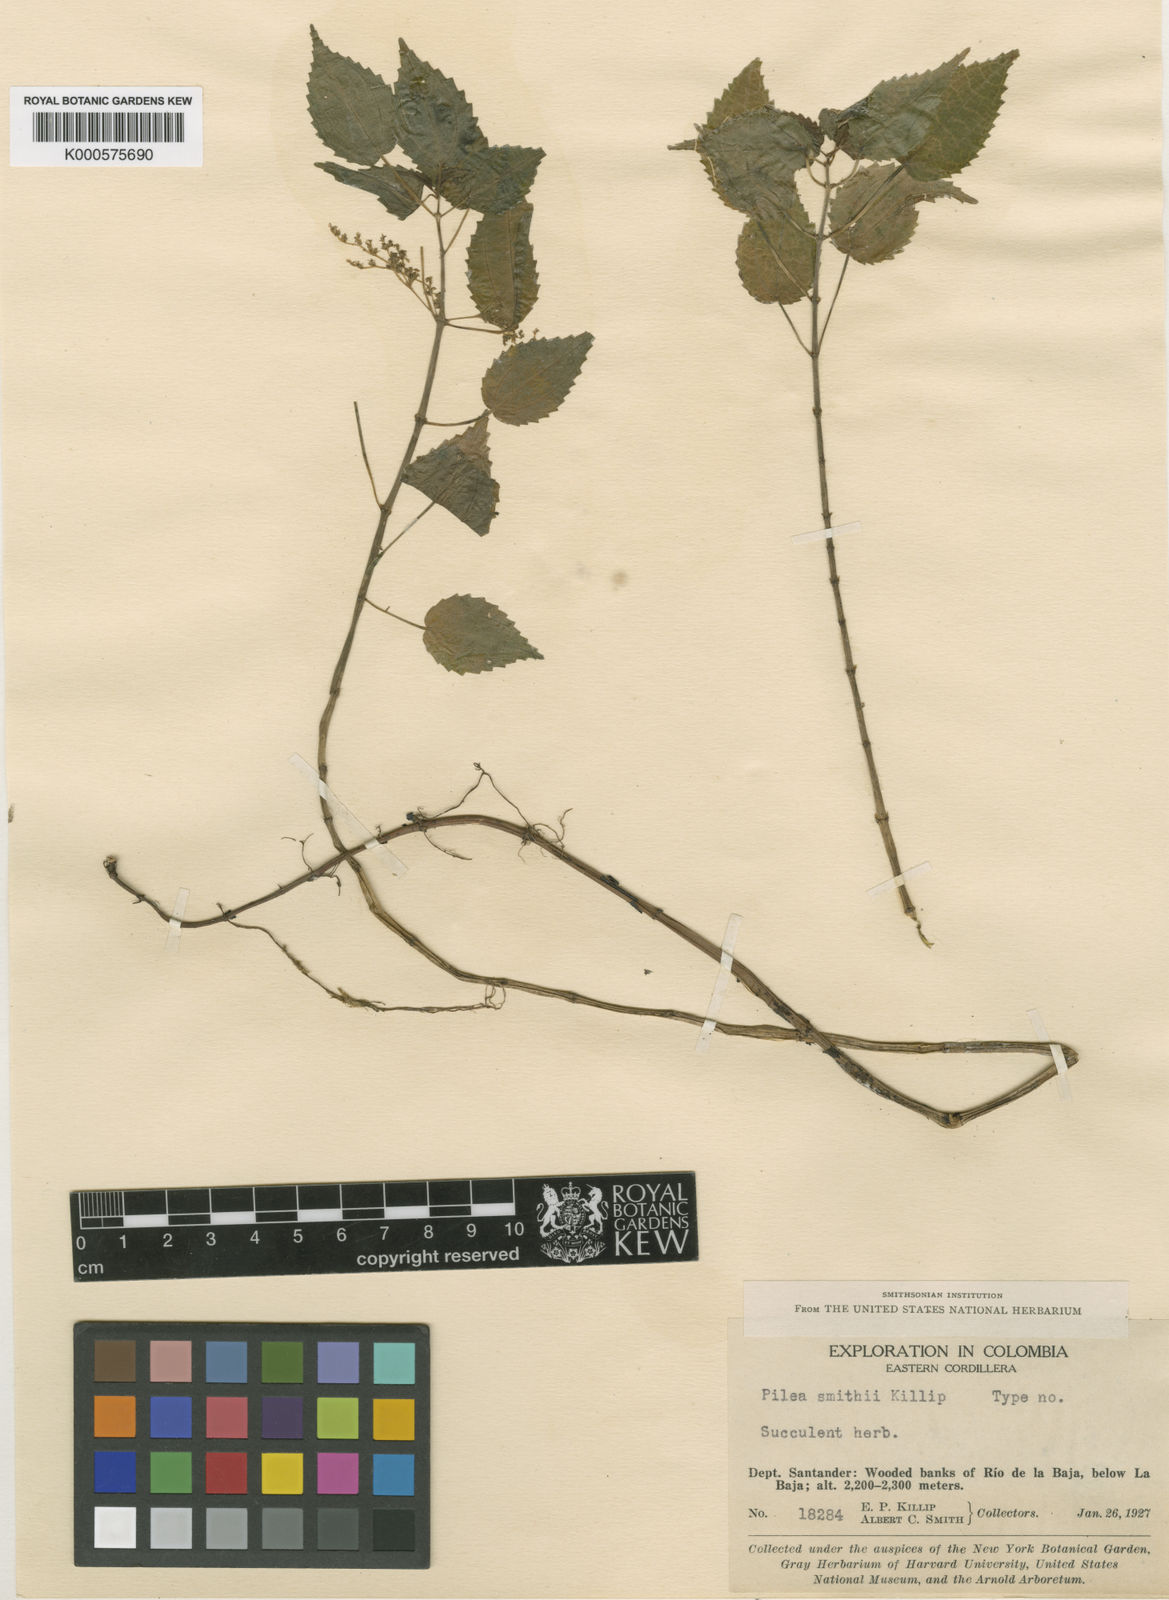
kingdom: Plantae
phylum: Tracheophyta
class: Magnoliopsida
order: Rosales
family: Urticaceae
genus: Pilea
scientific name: Pilea purulensis
